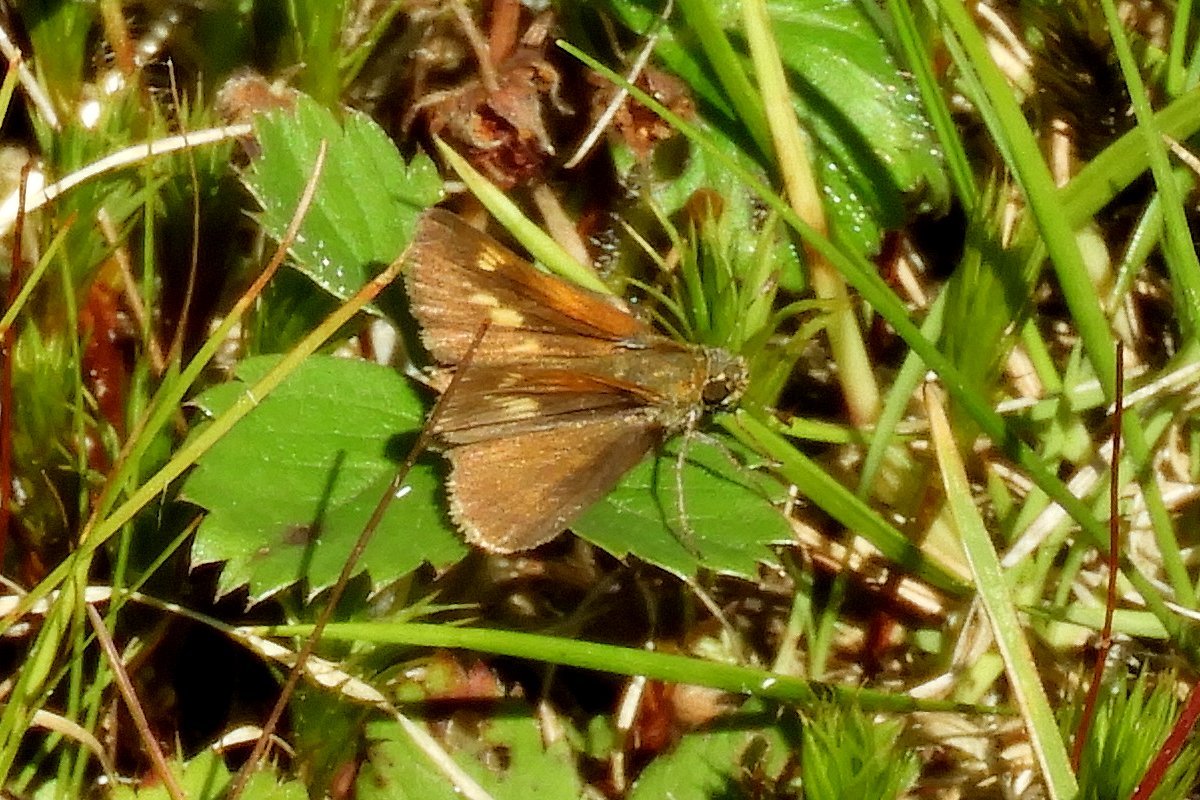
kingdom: Animalia
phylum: Arthropoda
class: Insecta
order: Lepidoptera
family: Hesperiidae
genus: Polites
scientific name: Polites themistocles
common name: Tawny-edged Skipper
